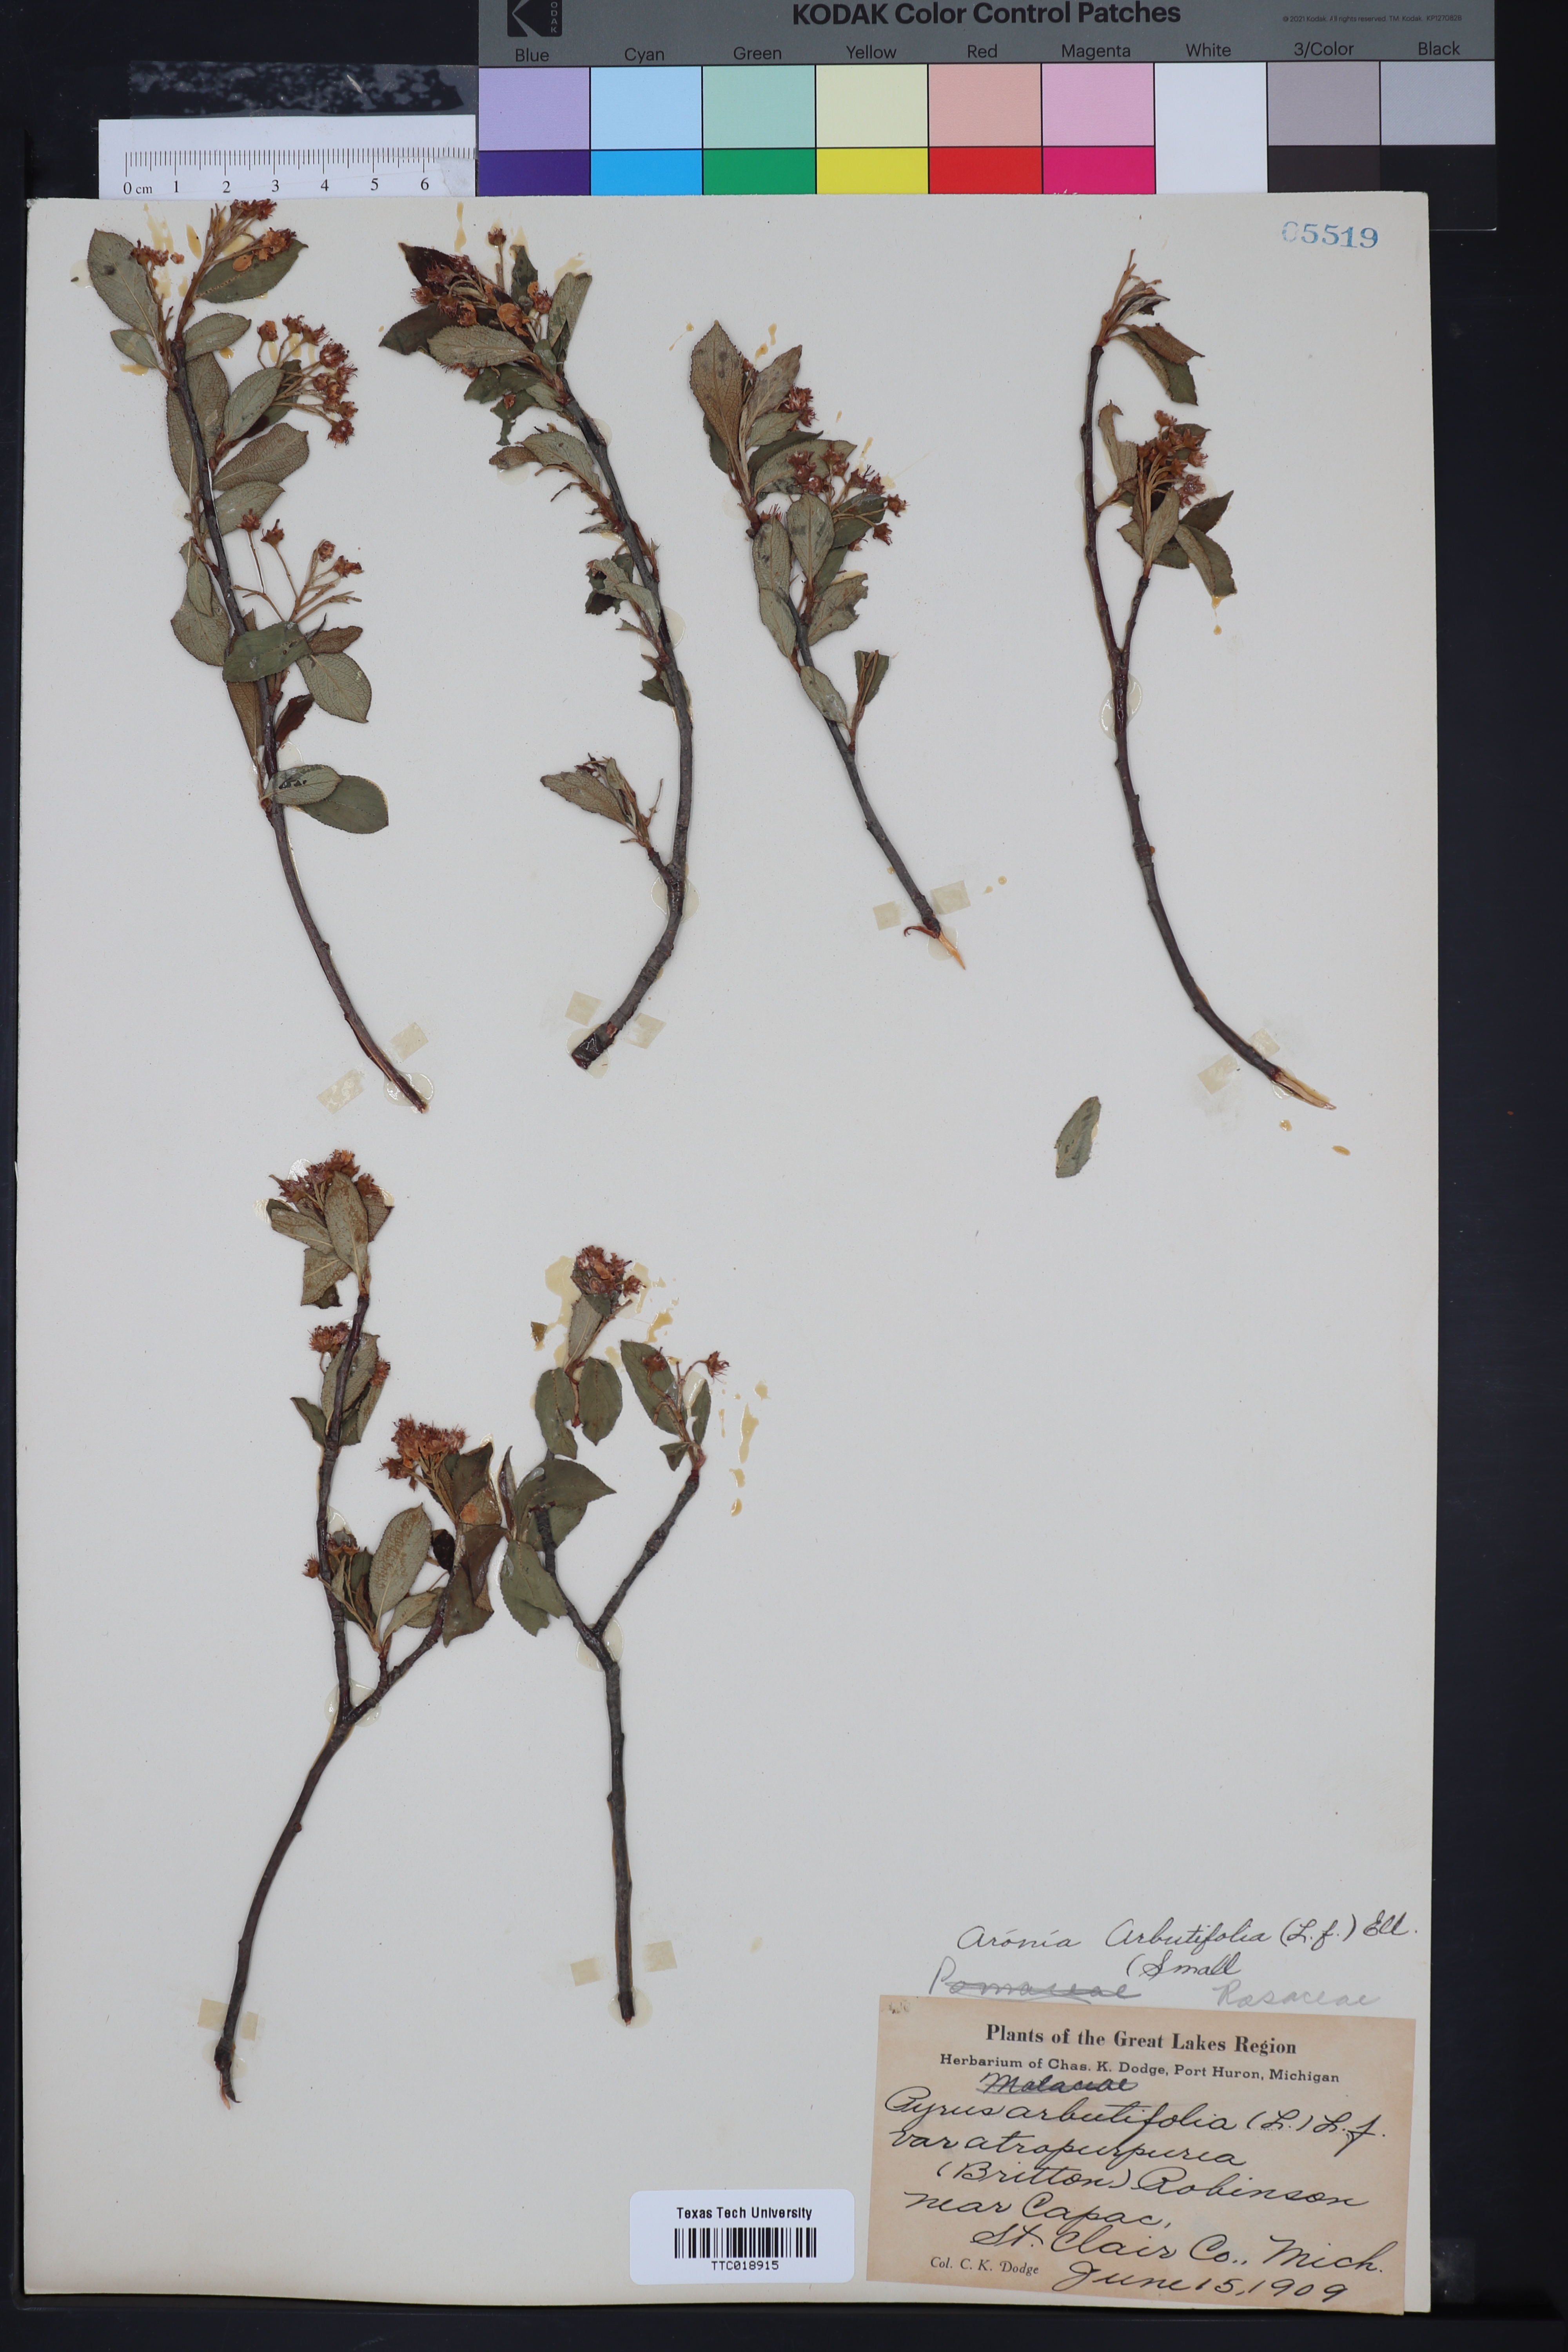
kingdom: Plantae
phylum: Tracheophyta
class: Magnoliopsida
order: Rosales
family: Rosaceae
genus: Aronia
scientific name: Aronia arbutifolia
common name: Red chokeberry
